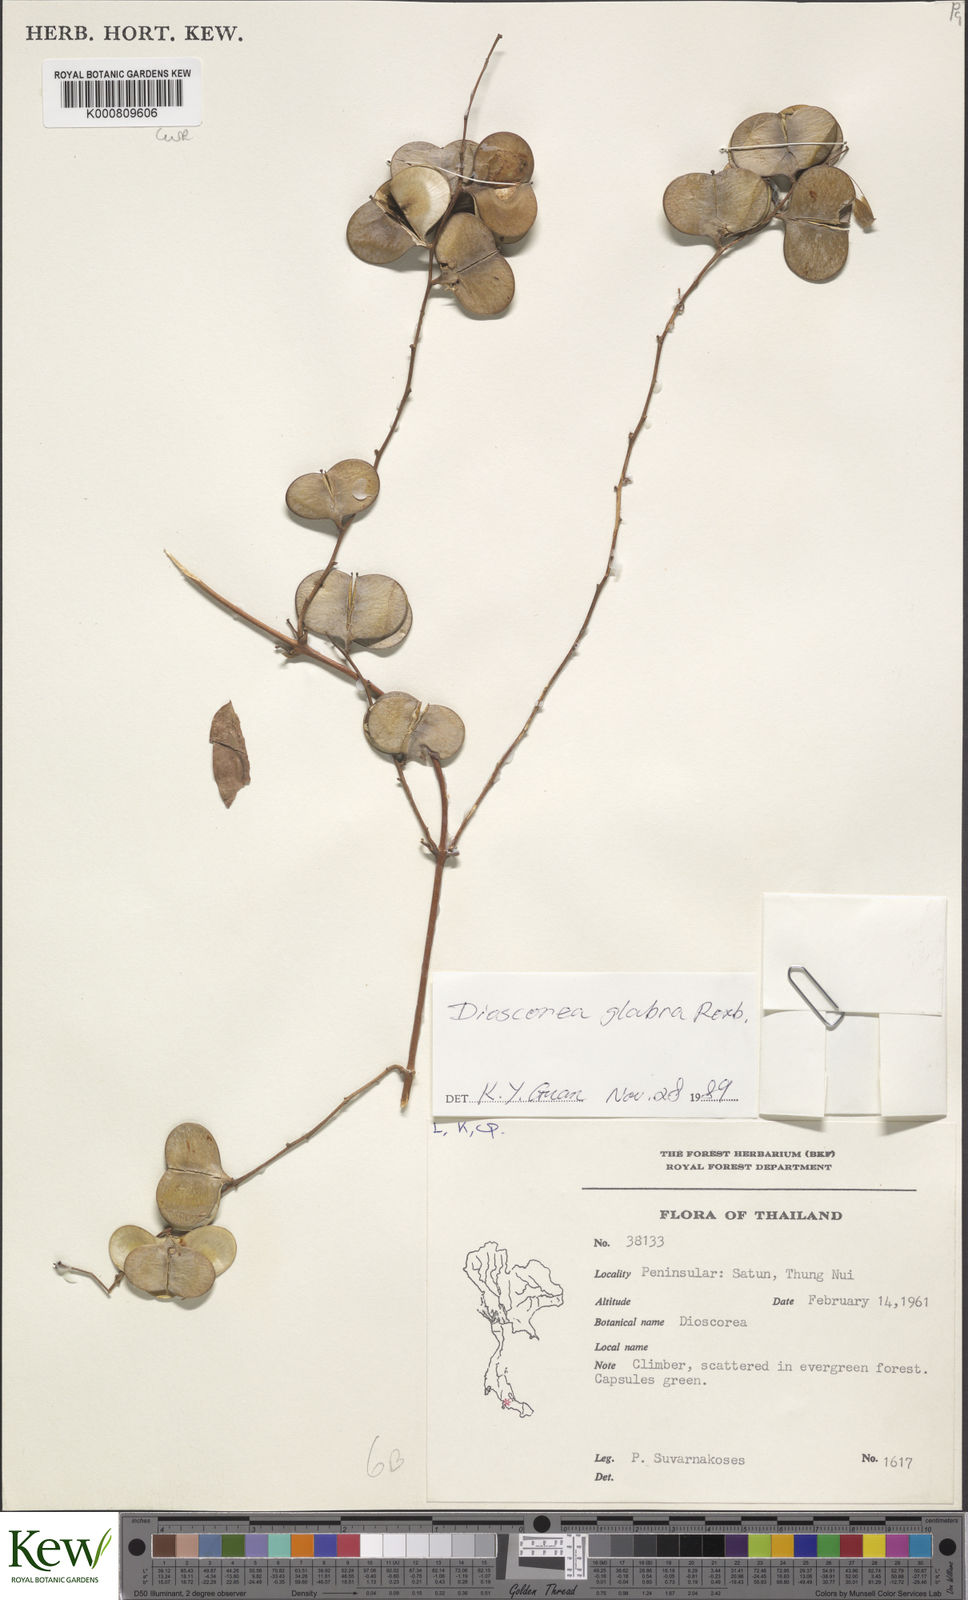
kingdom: Plantae
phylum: Tracheophyta
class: Liliopsida
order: Dioscoreales
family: Dioscoreaceae
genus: Dioscorea
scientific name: Dioscorea glabra
